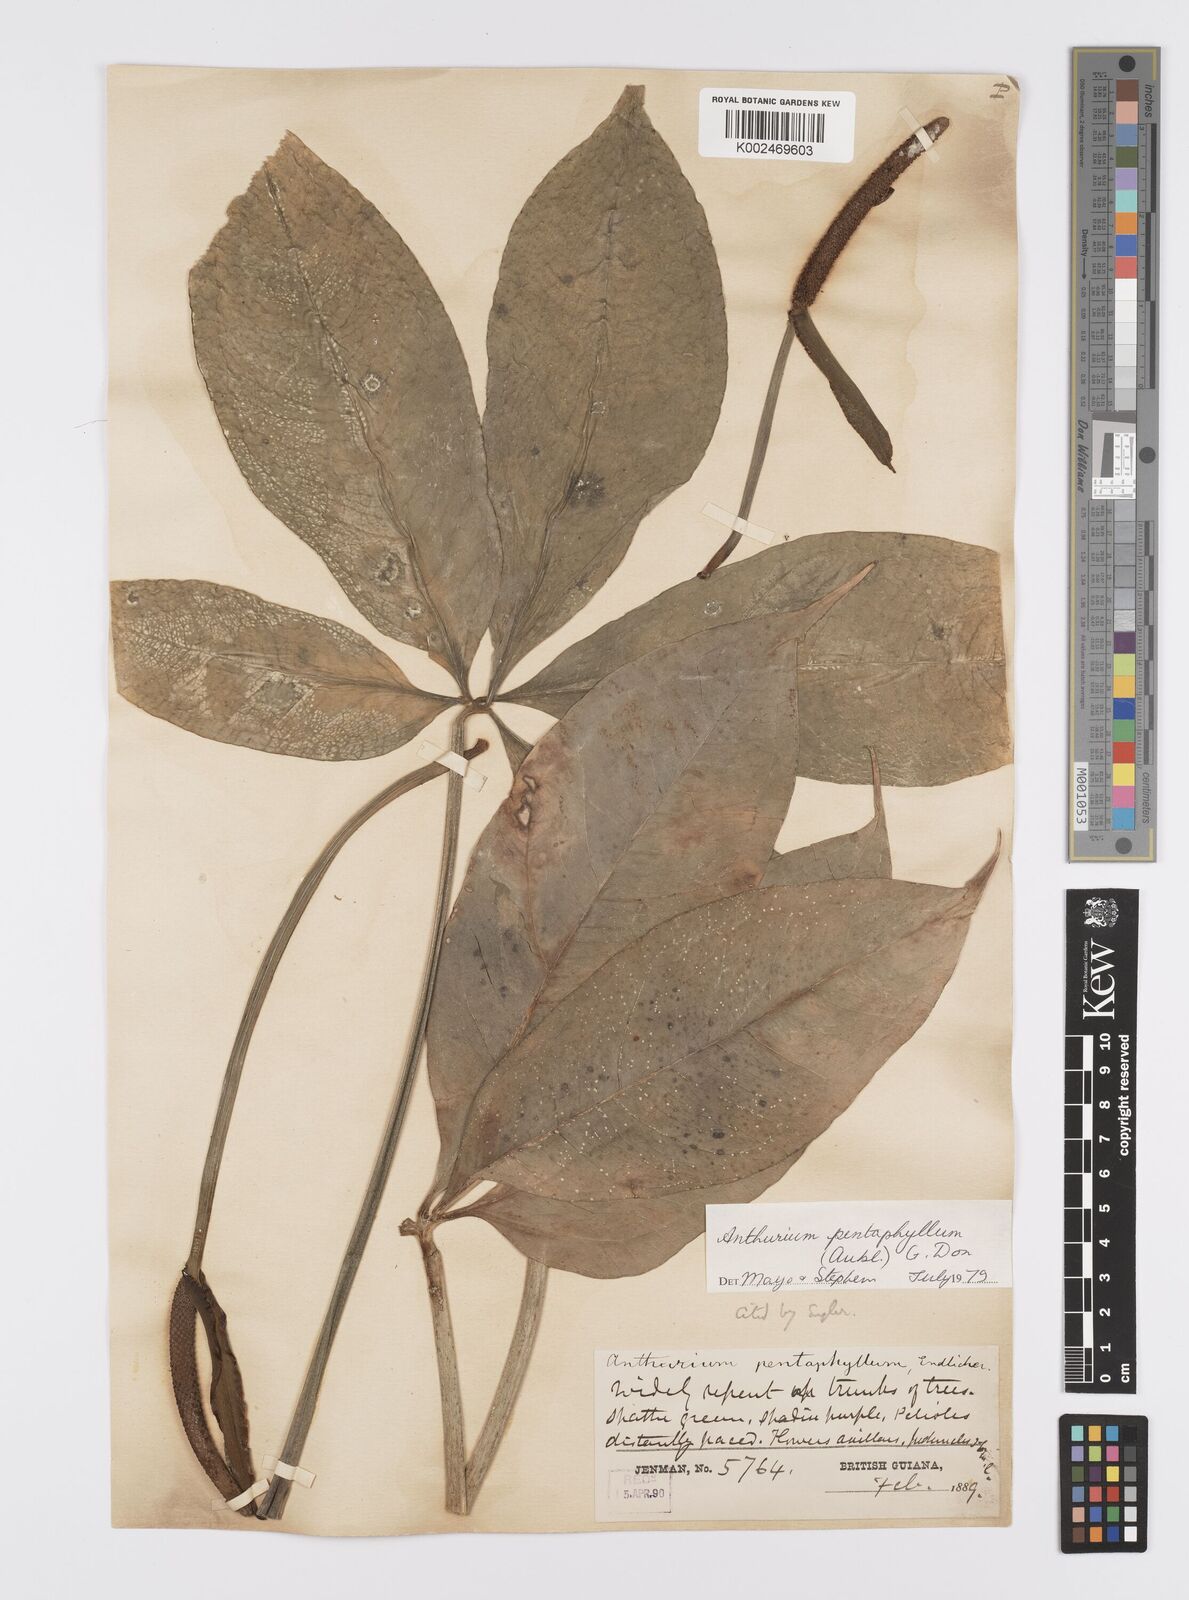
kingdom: Plantae
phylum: Tracheophyta
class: Liliopsida
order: Alismatales
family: Araceae
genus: Anthurium
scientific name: Anthurium pentaphyllum
